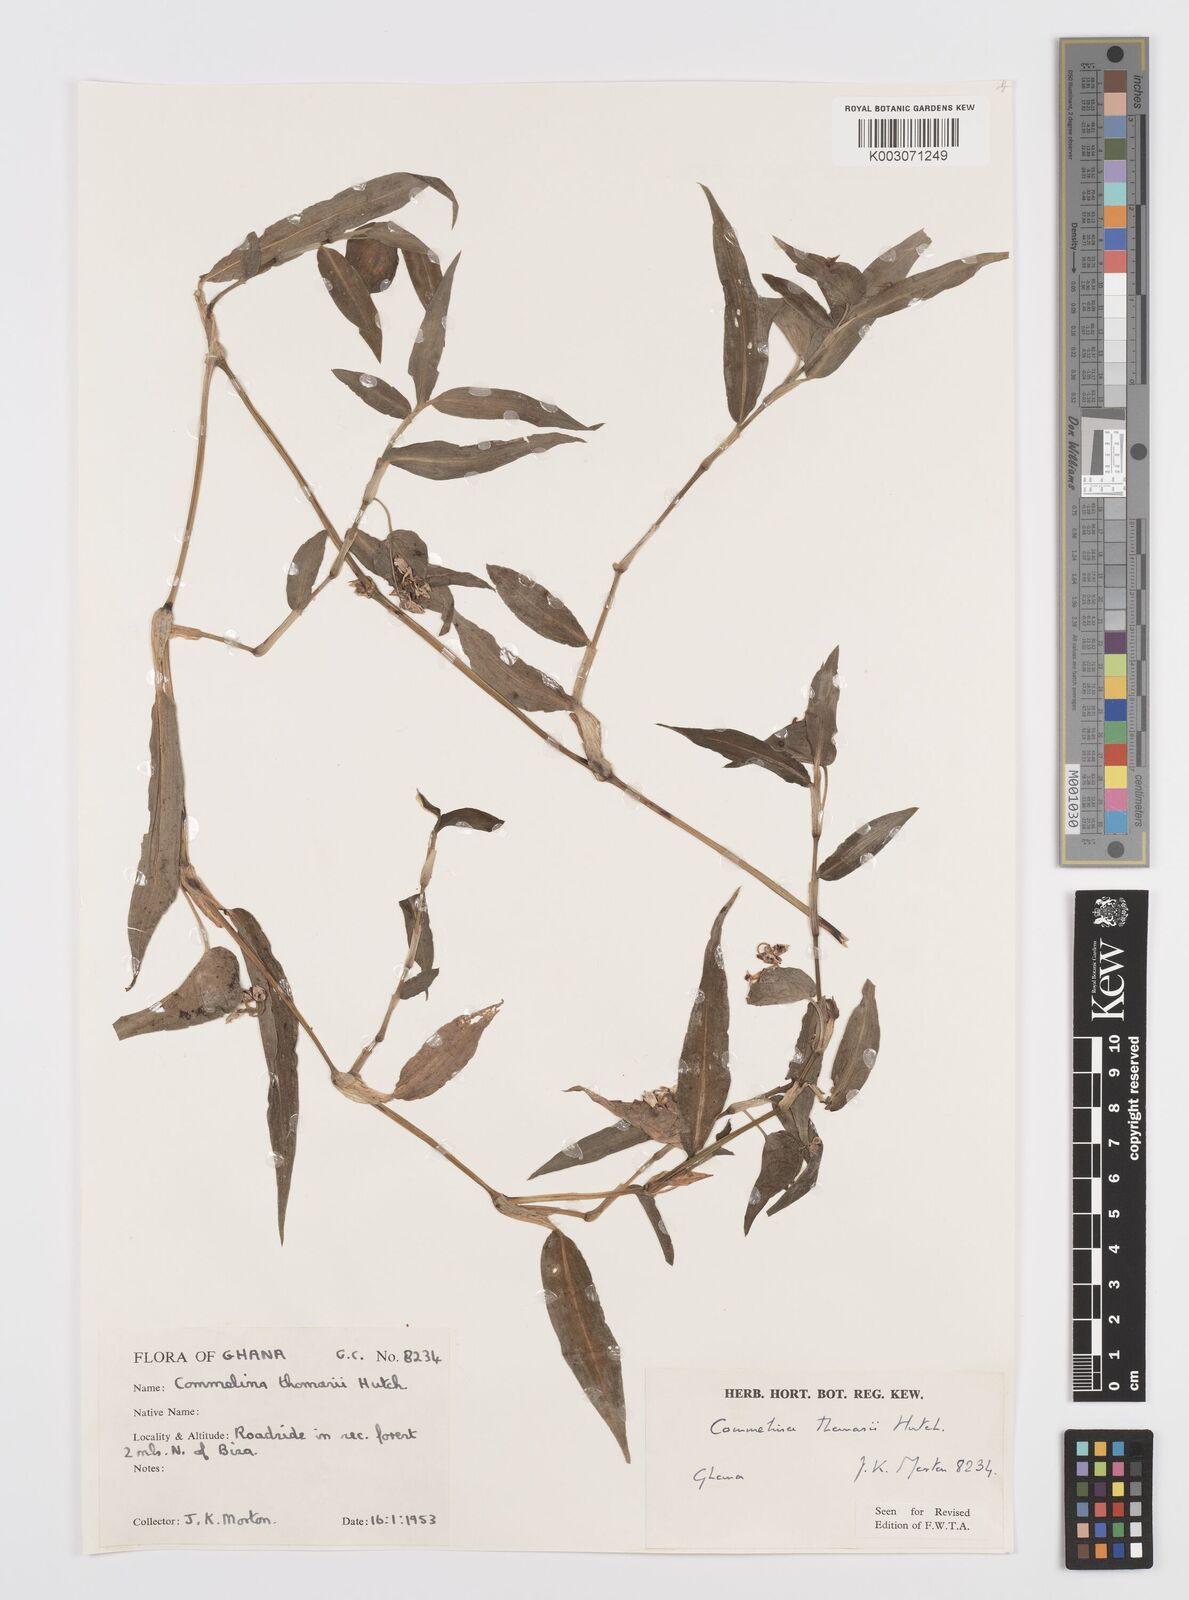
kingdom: Plantae
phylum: Tracheophyta
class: Liliopsida
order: Commelinales
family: Commelinaceae
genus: Commelina
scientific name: Commelina acutispatha
